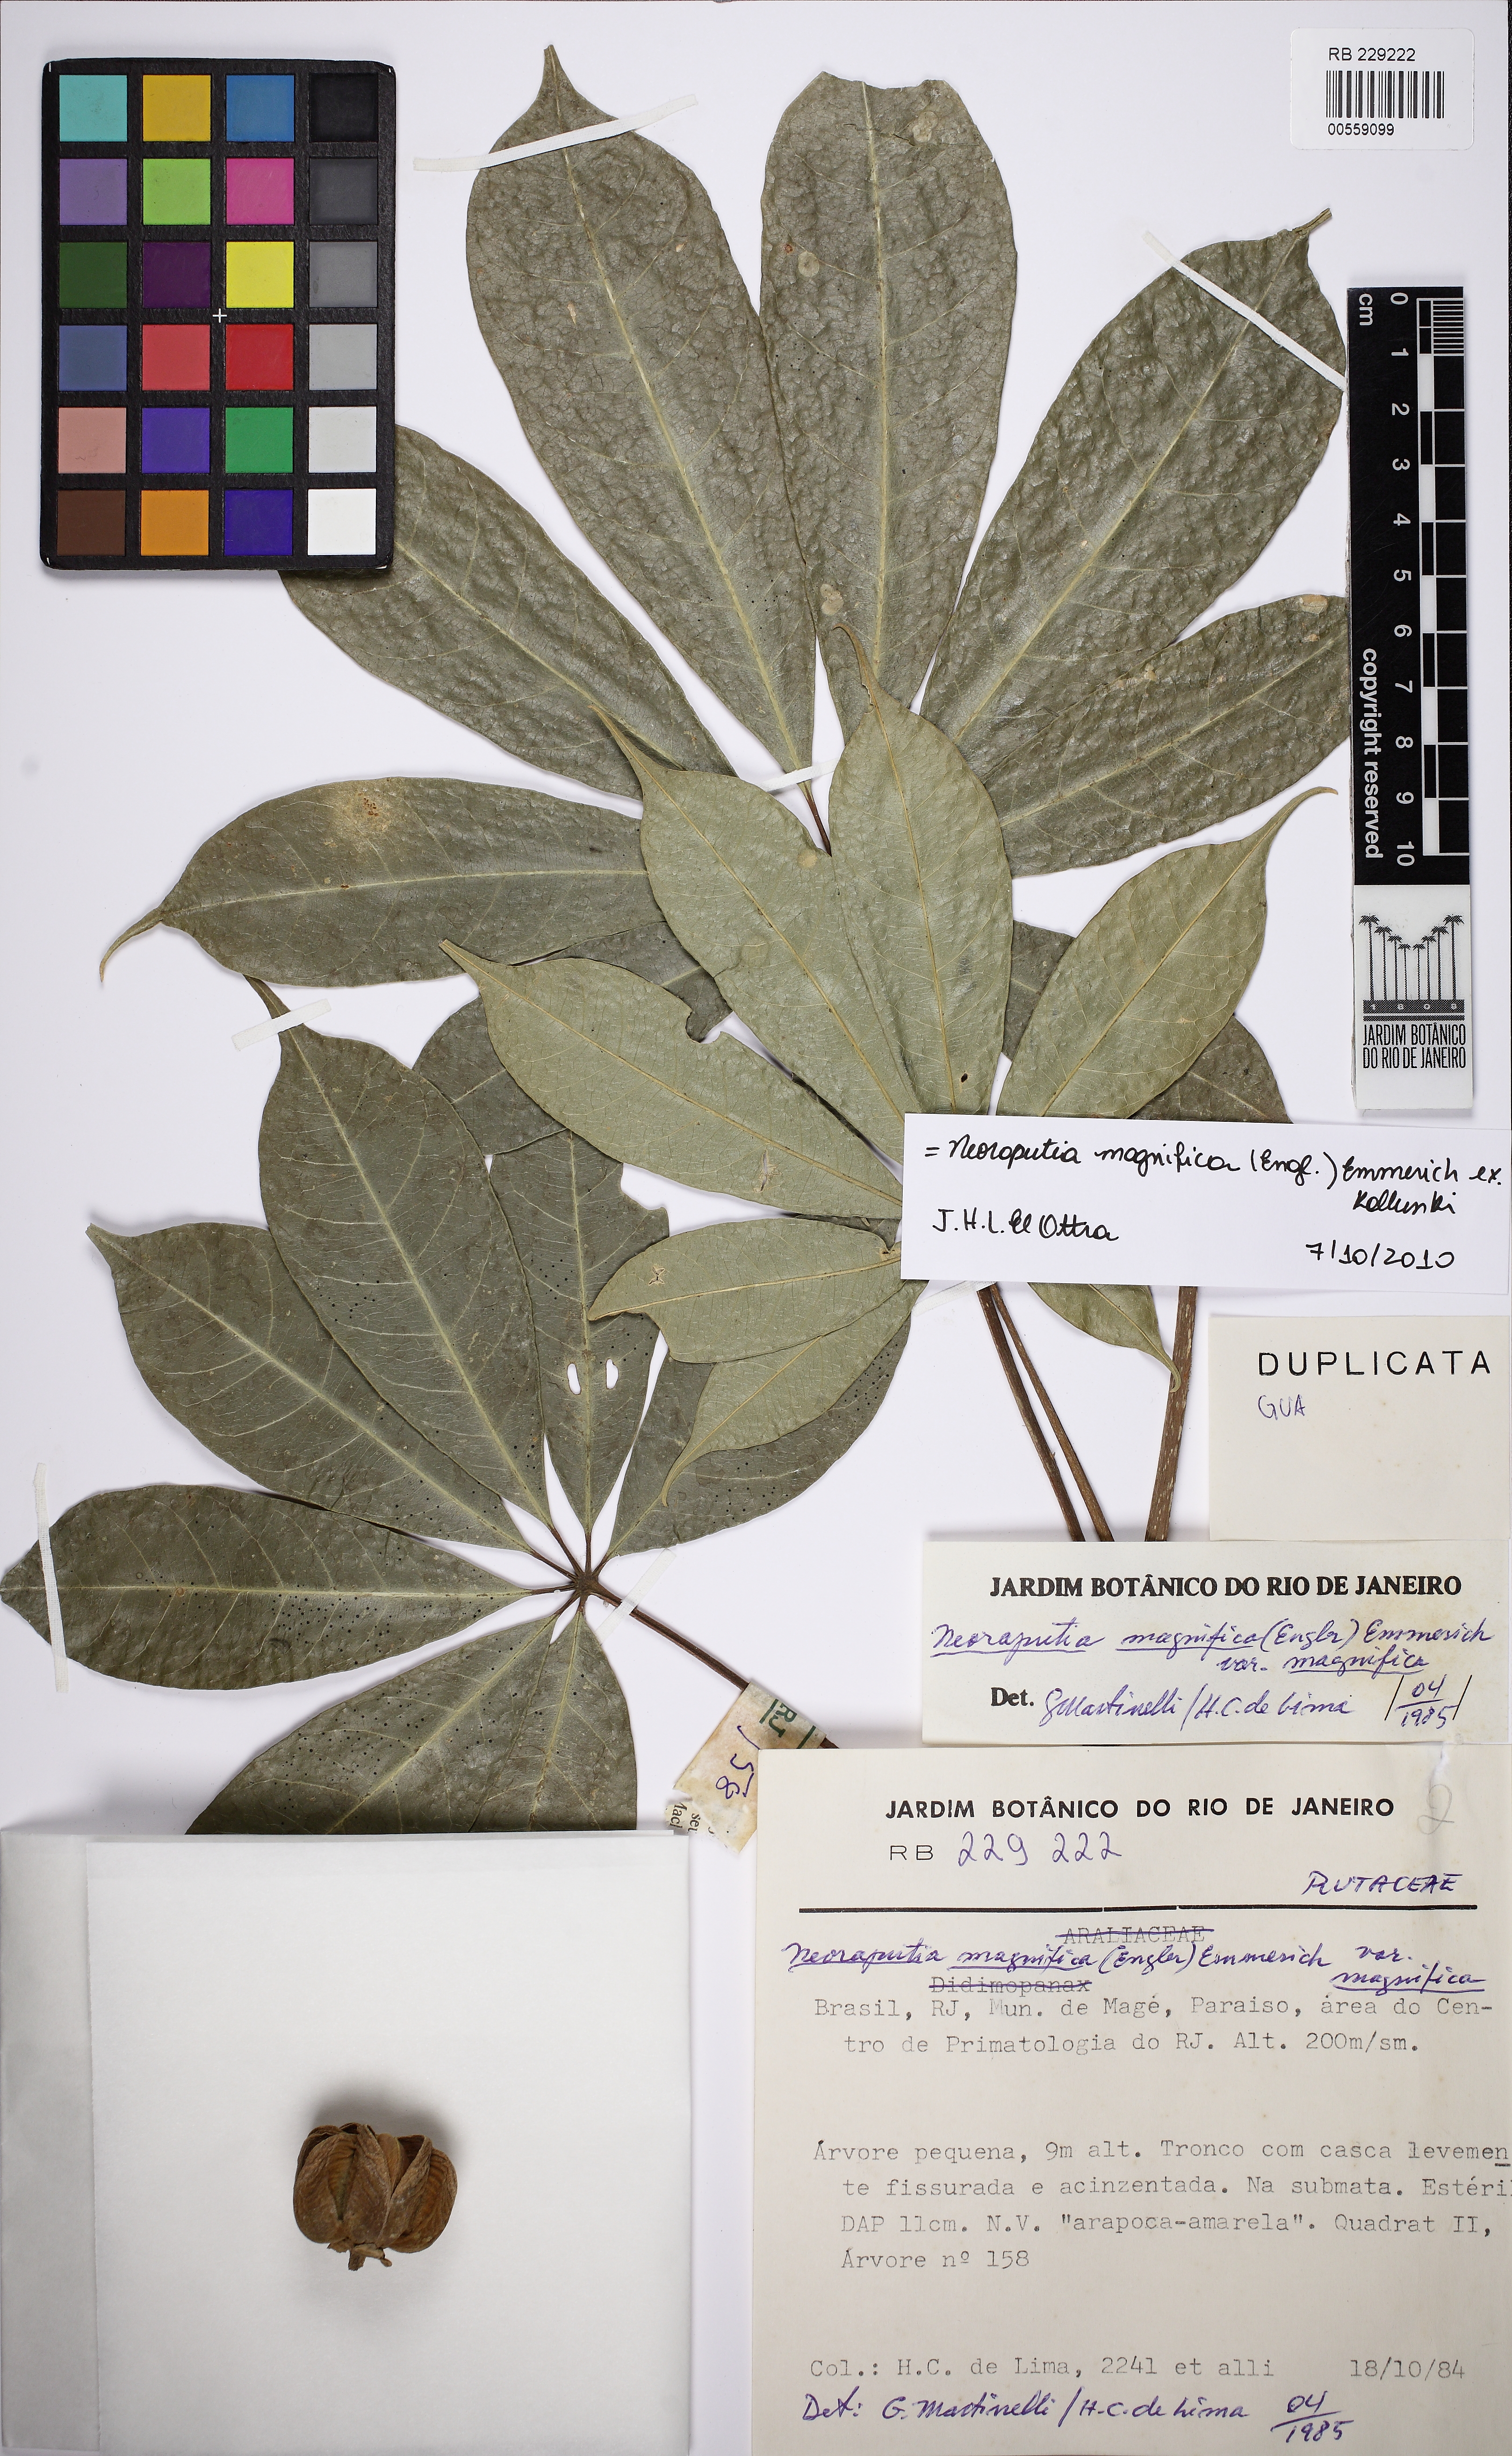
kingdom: Plantae
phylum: Tracheophyta
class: Magnoliopsida
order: Sapindales
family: Rutaceae
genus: Neoraputia
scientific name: Neoraputia magnifica
